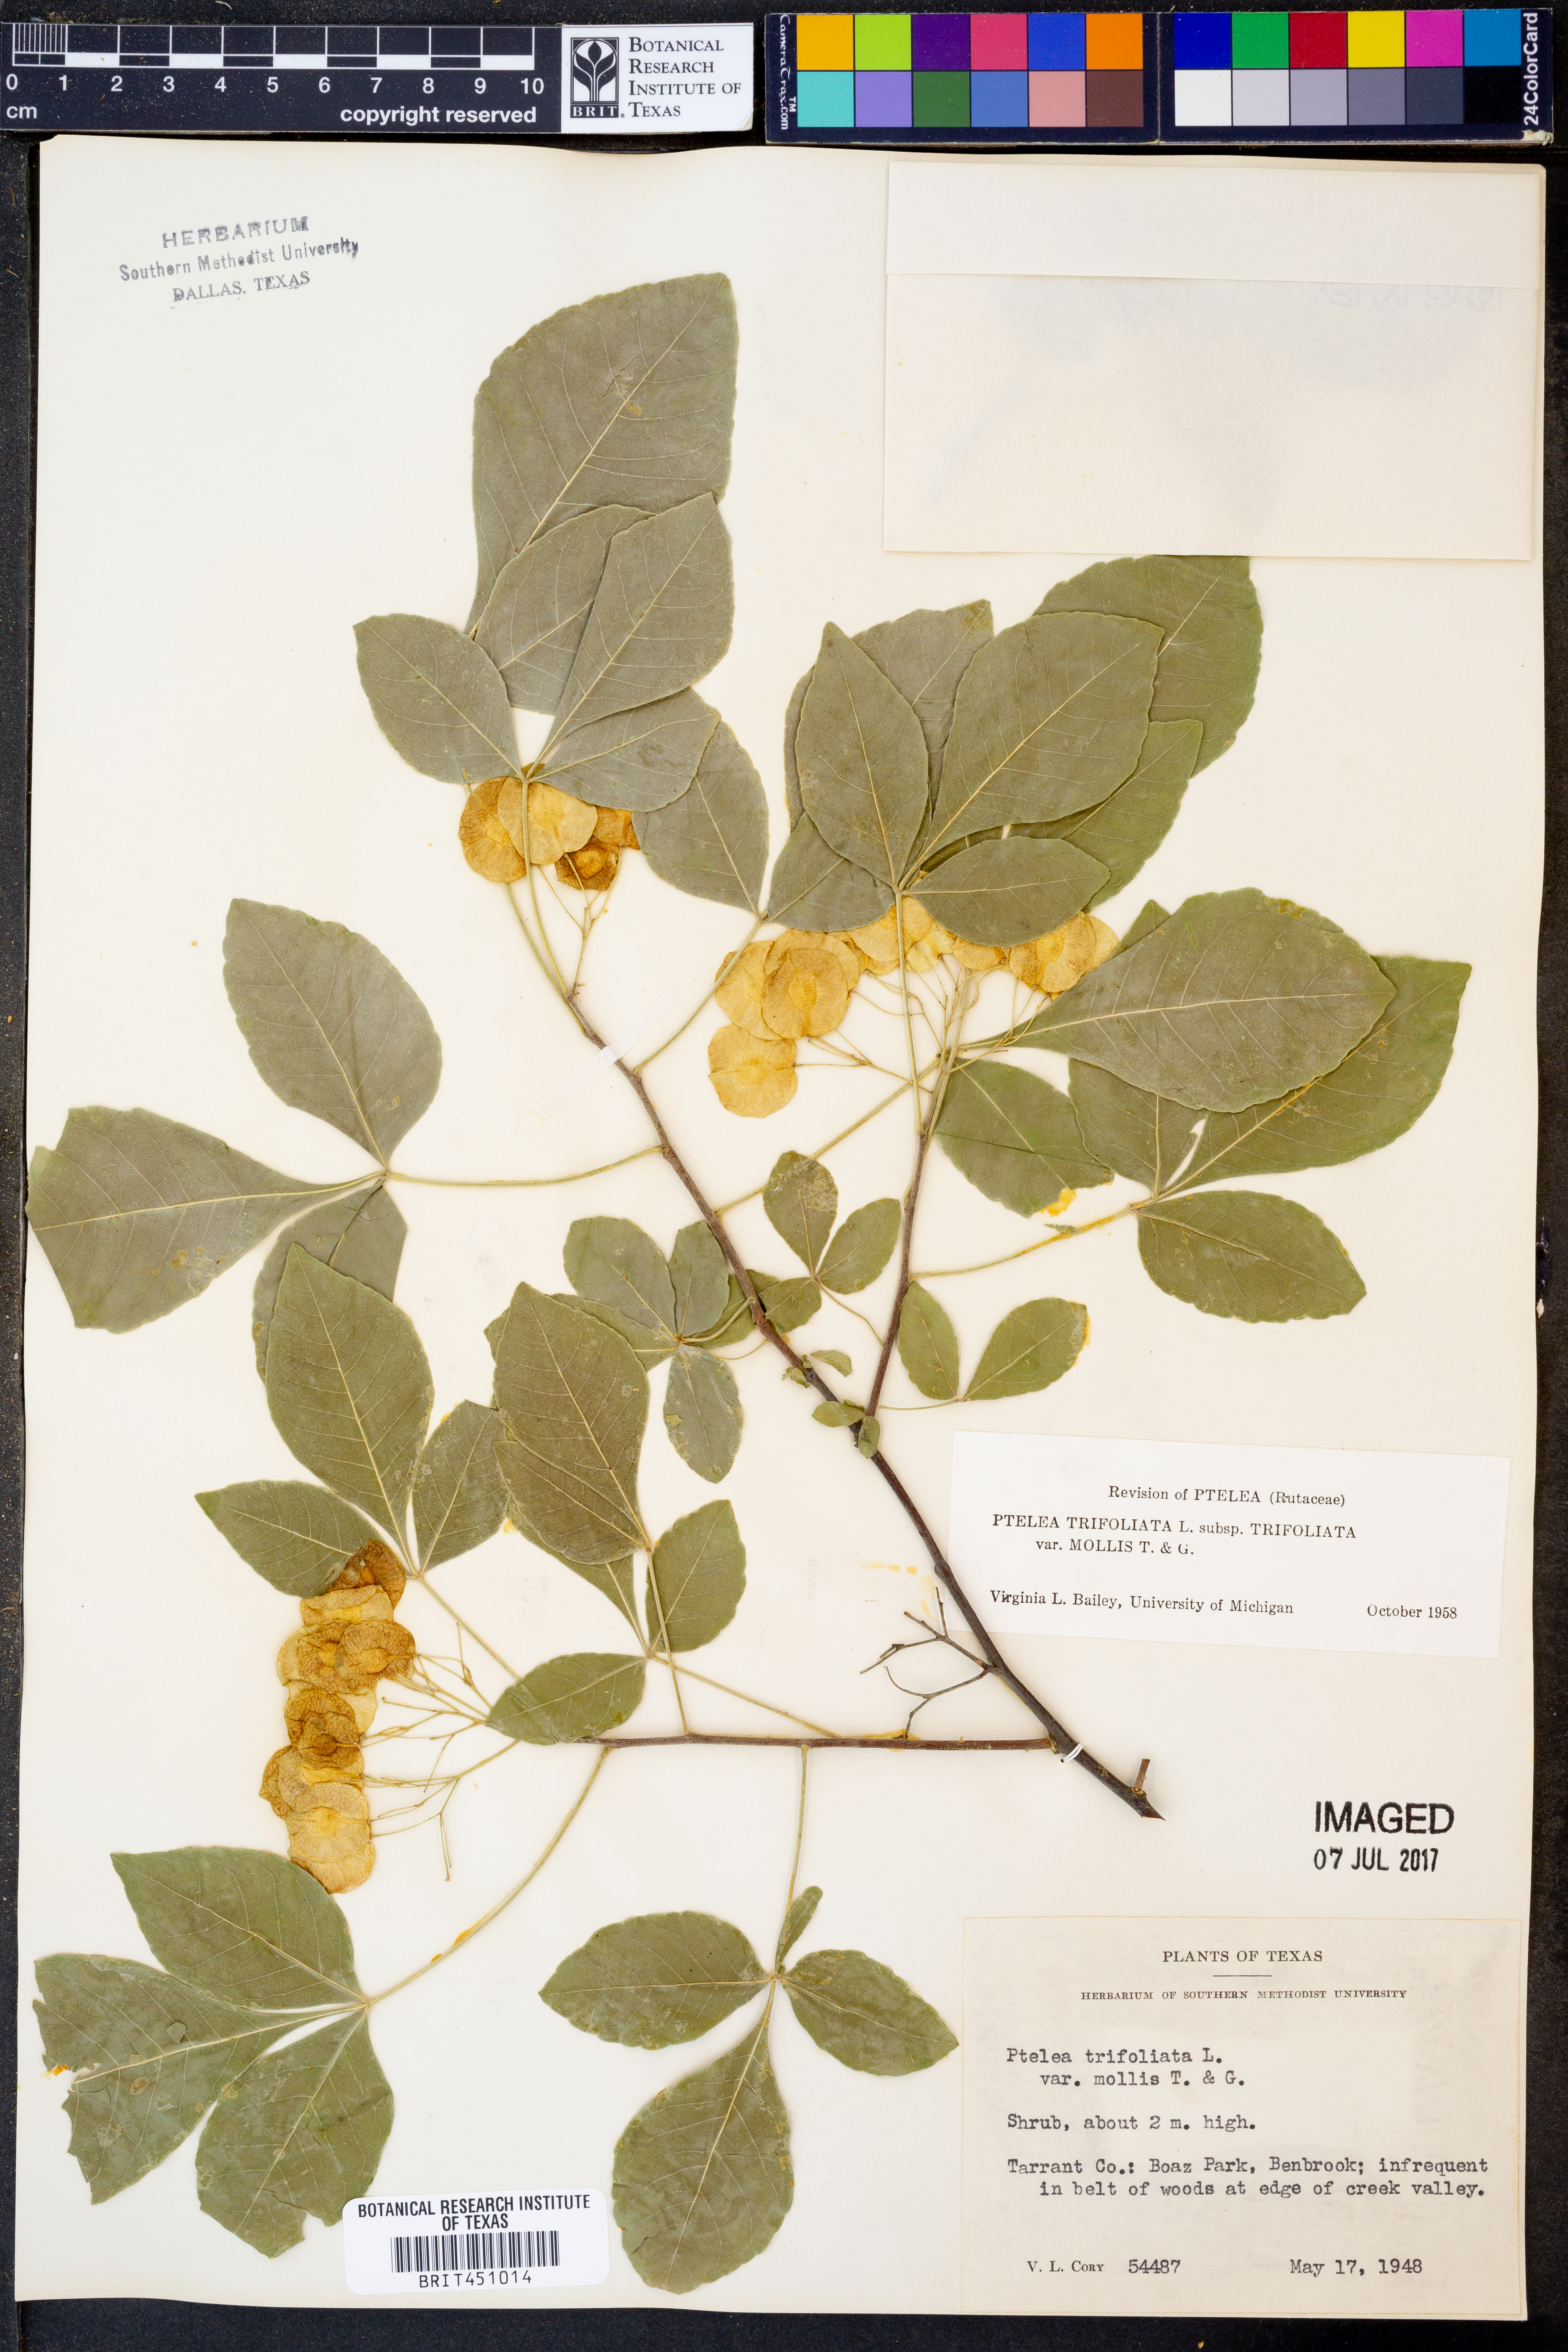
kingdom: Plantae
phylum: Tracheophyta
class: Magnoliopsida
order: Sapindales
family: Rutaceae
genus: Ptelea
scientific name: Ptelea trifoliata
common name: Common hop-tree
